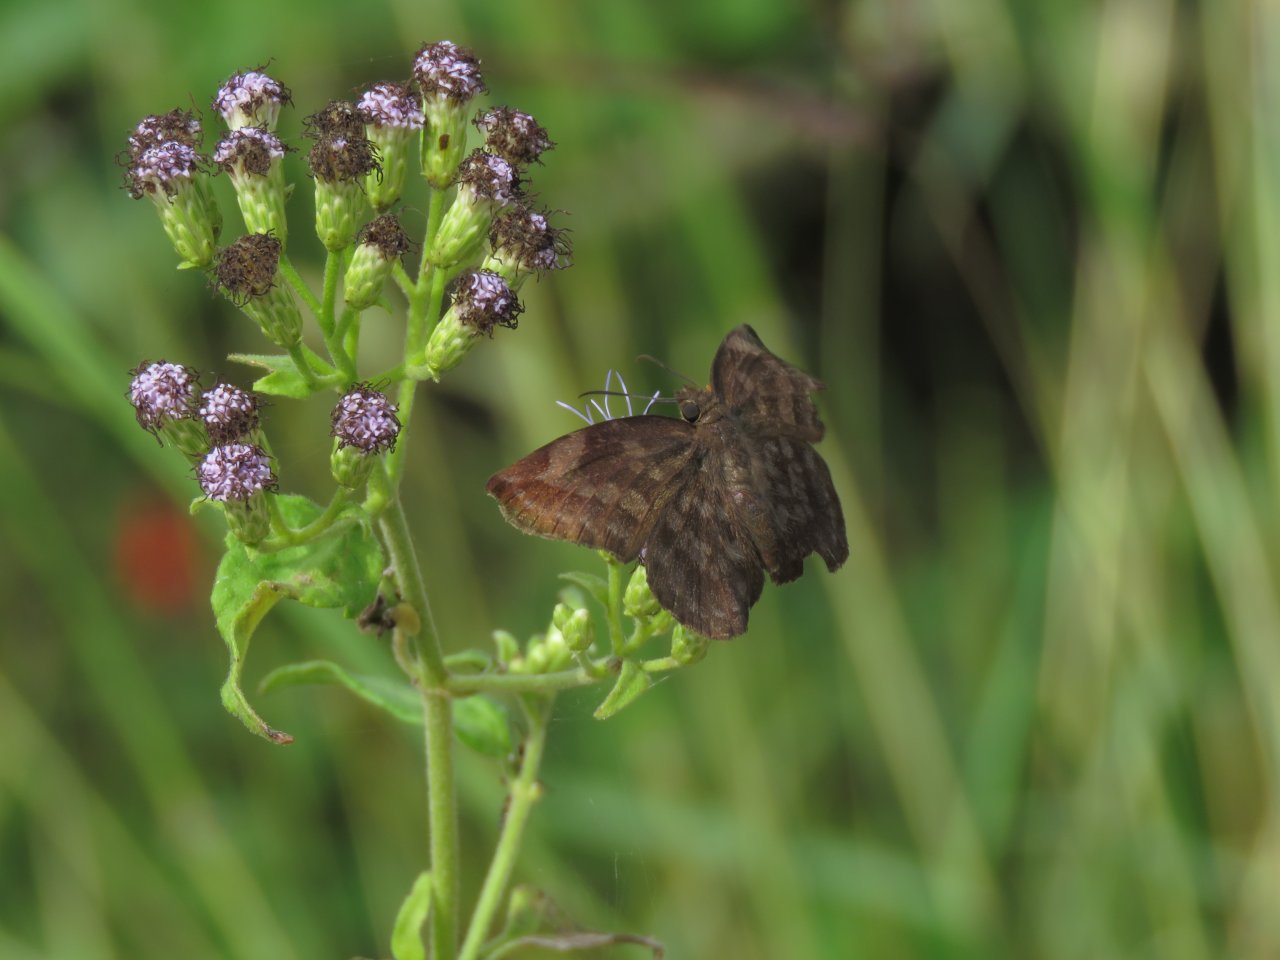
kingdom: Animalia
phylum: Arthropoda
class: Insecta
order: Lepidoptera
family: Hesperiidae
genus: Achlyodes
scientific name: Achlyodes thraso
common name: Sickle-winged Skipper
